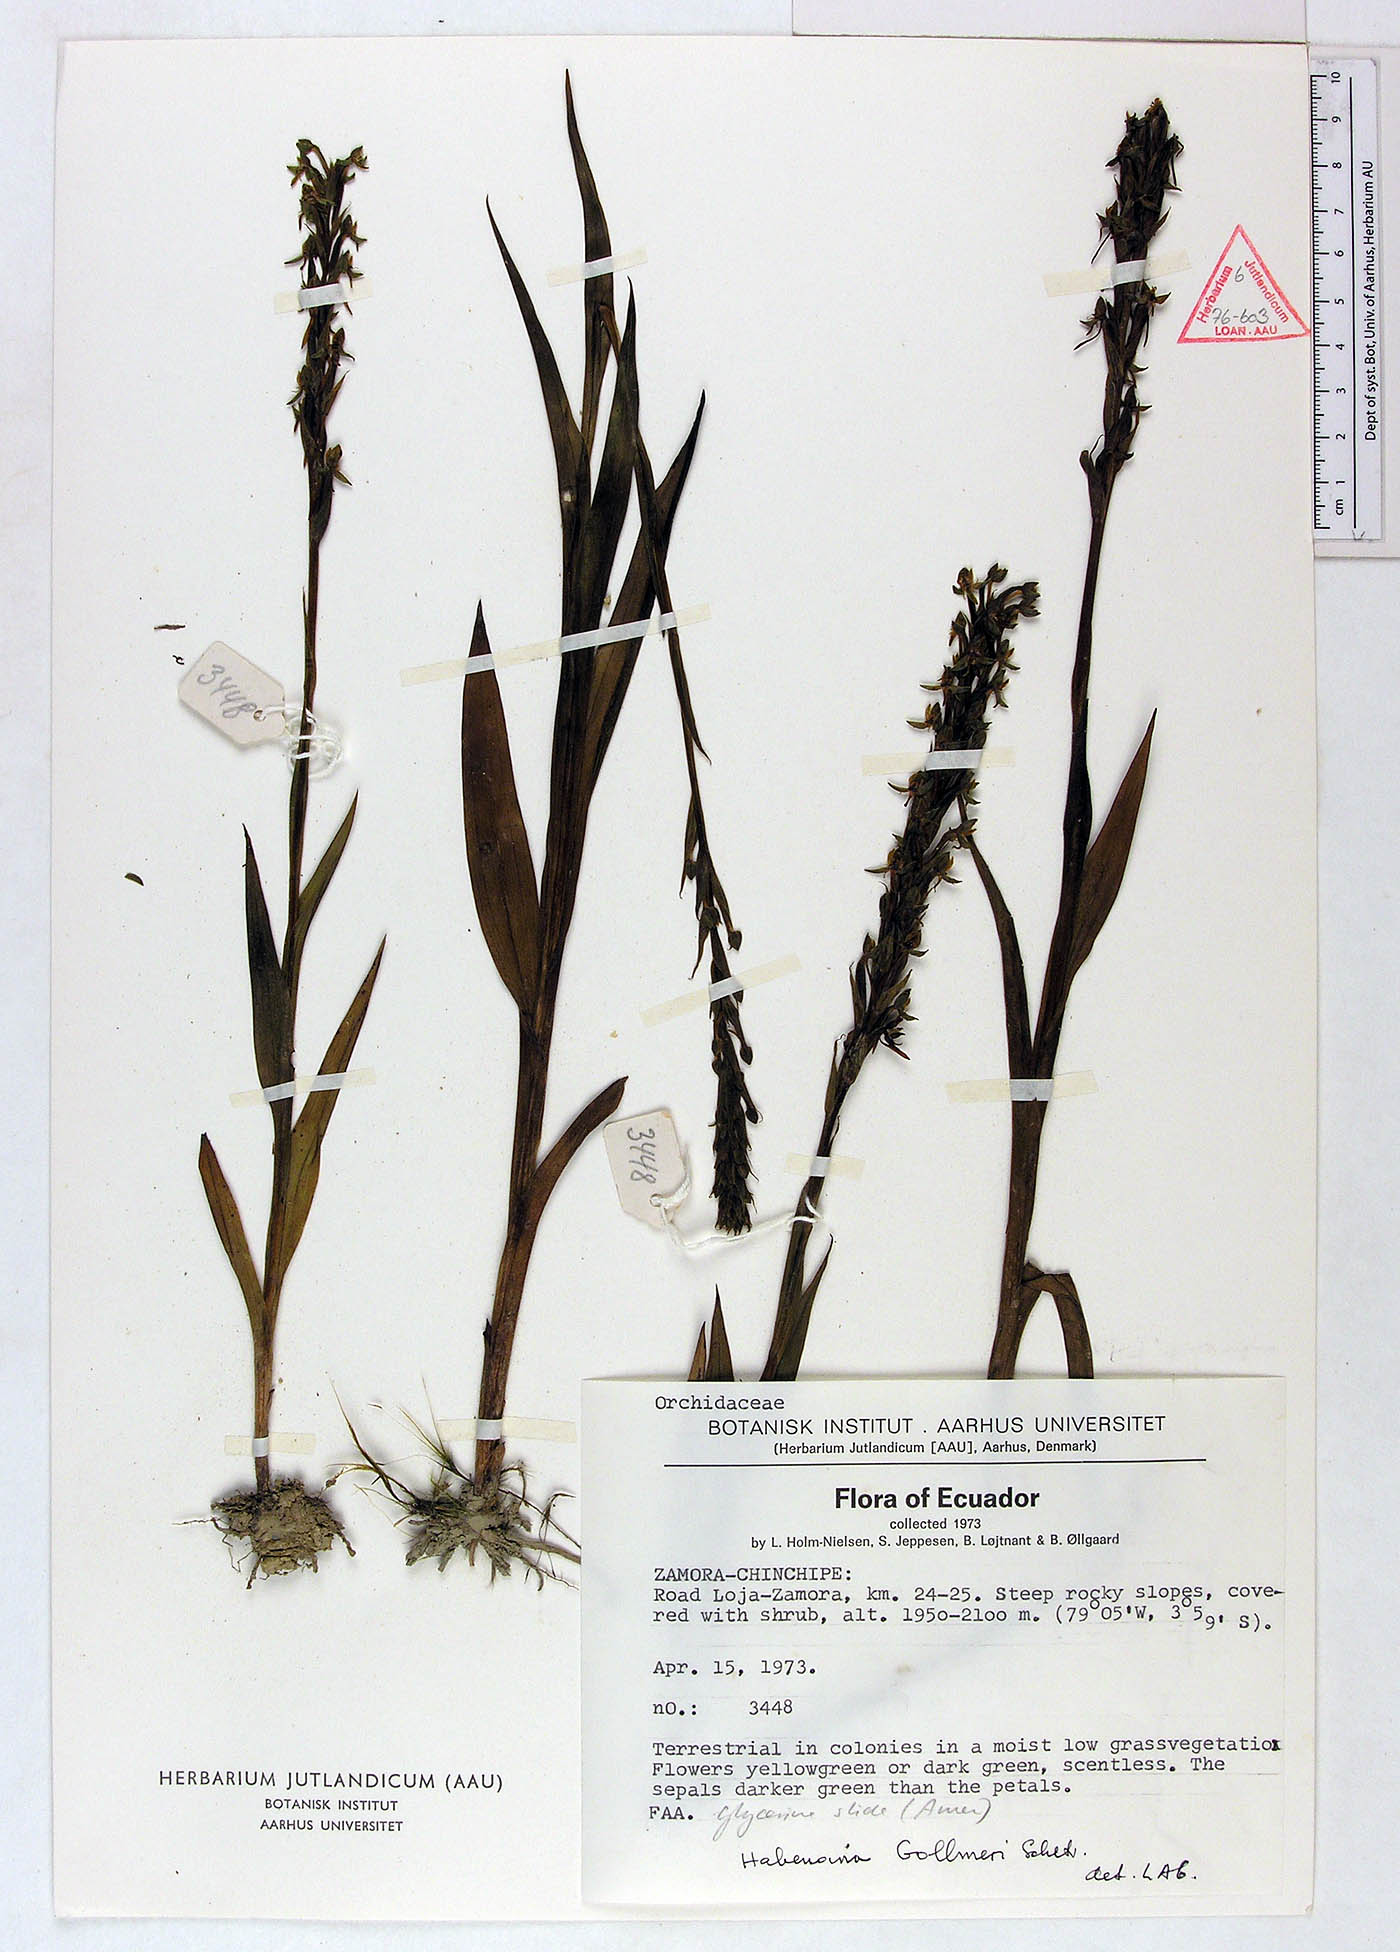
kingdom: Plantae
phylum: Tracheophyta
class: Liliopsida
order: Asparagales
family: Orchidaceae
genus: Habenaria
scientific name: Habenaria gollmeri
